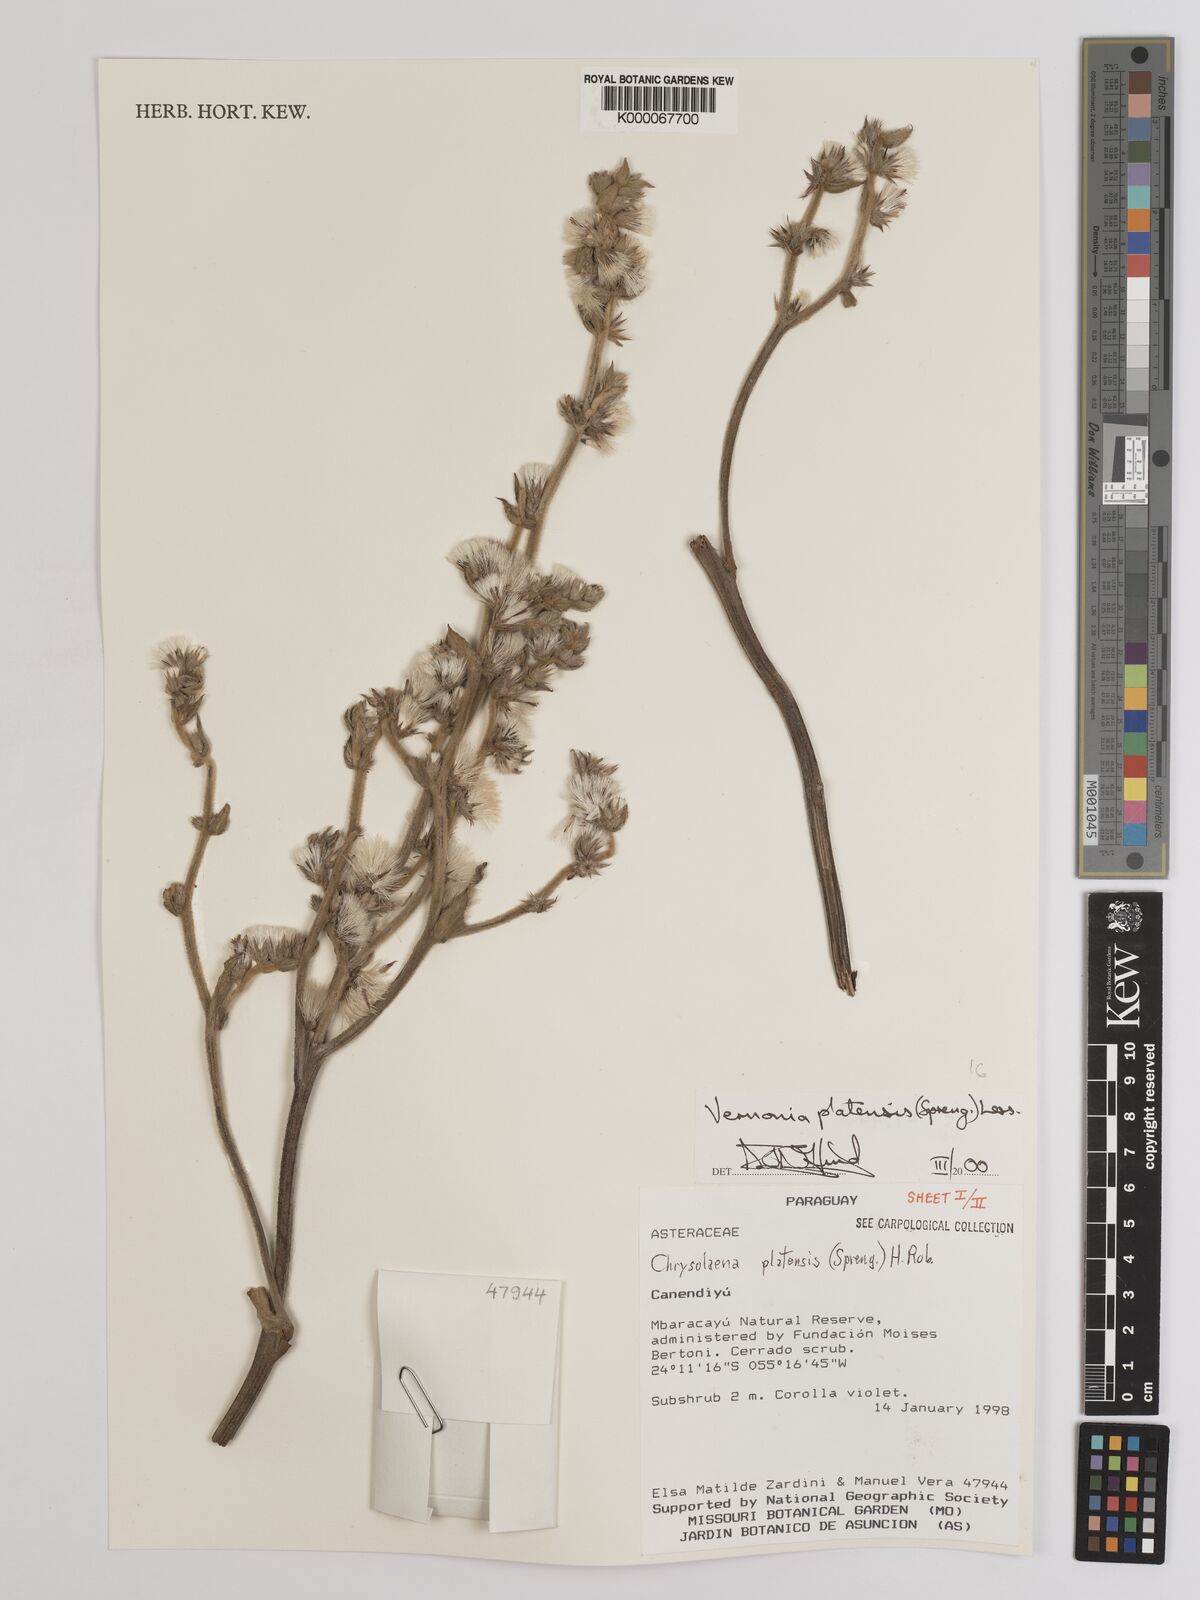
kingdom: Plantae
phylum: Tracheophyta
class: Magnoliopsida
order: Asterales
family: Asteraceae
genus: Chrysolaena
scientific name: Chrysolaena platensis
